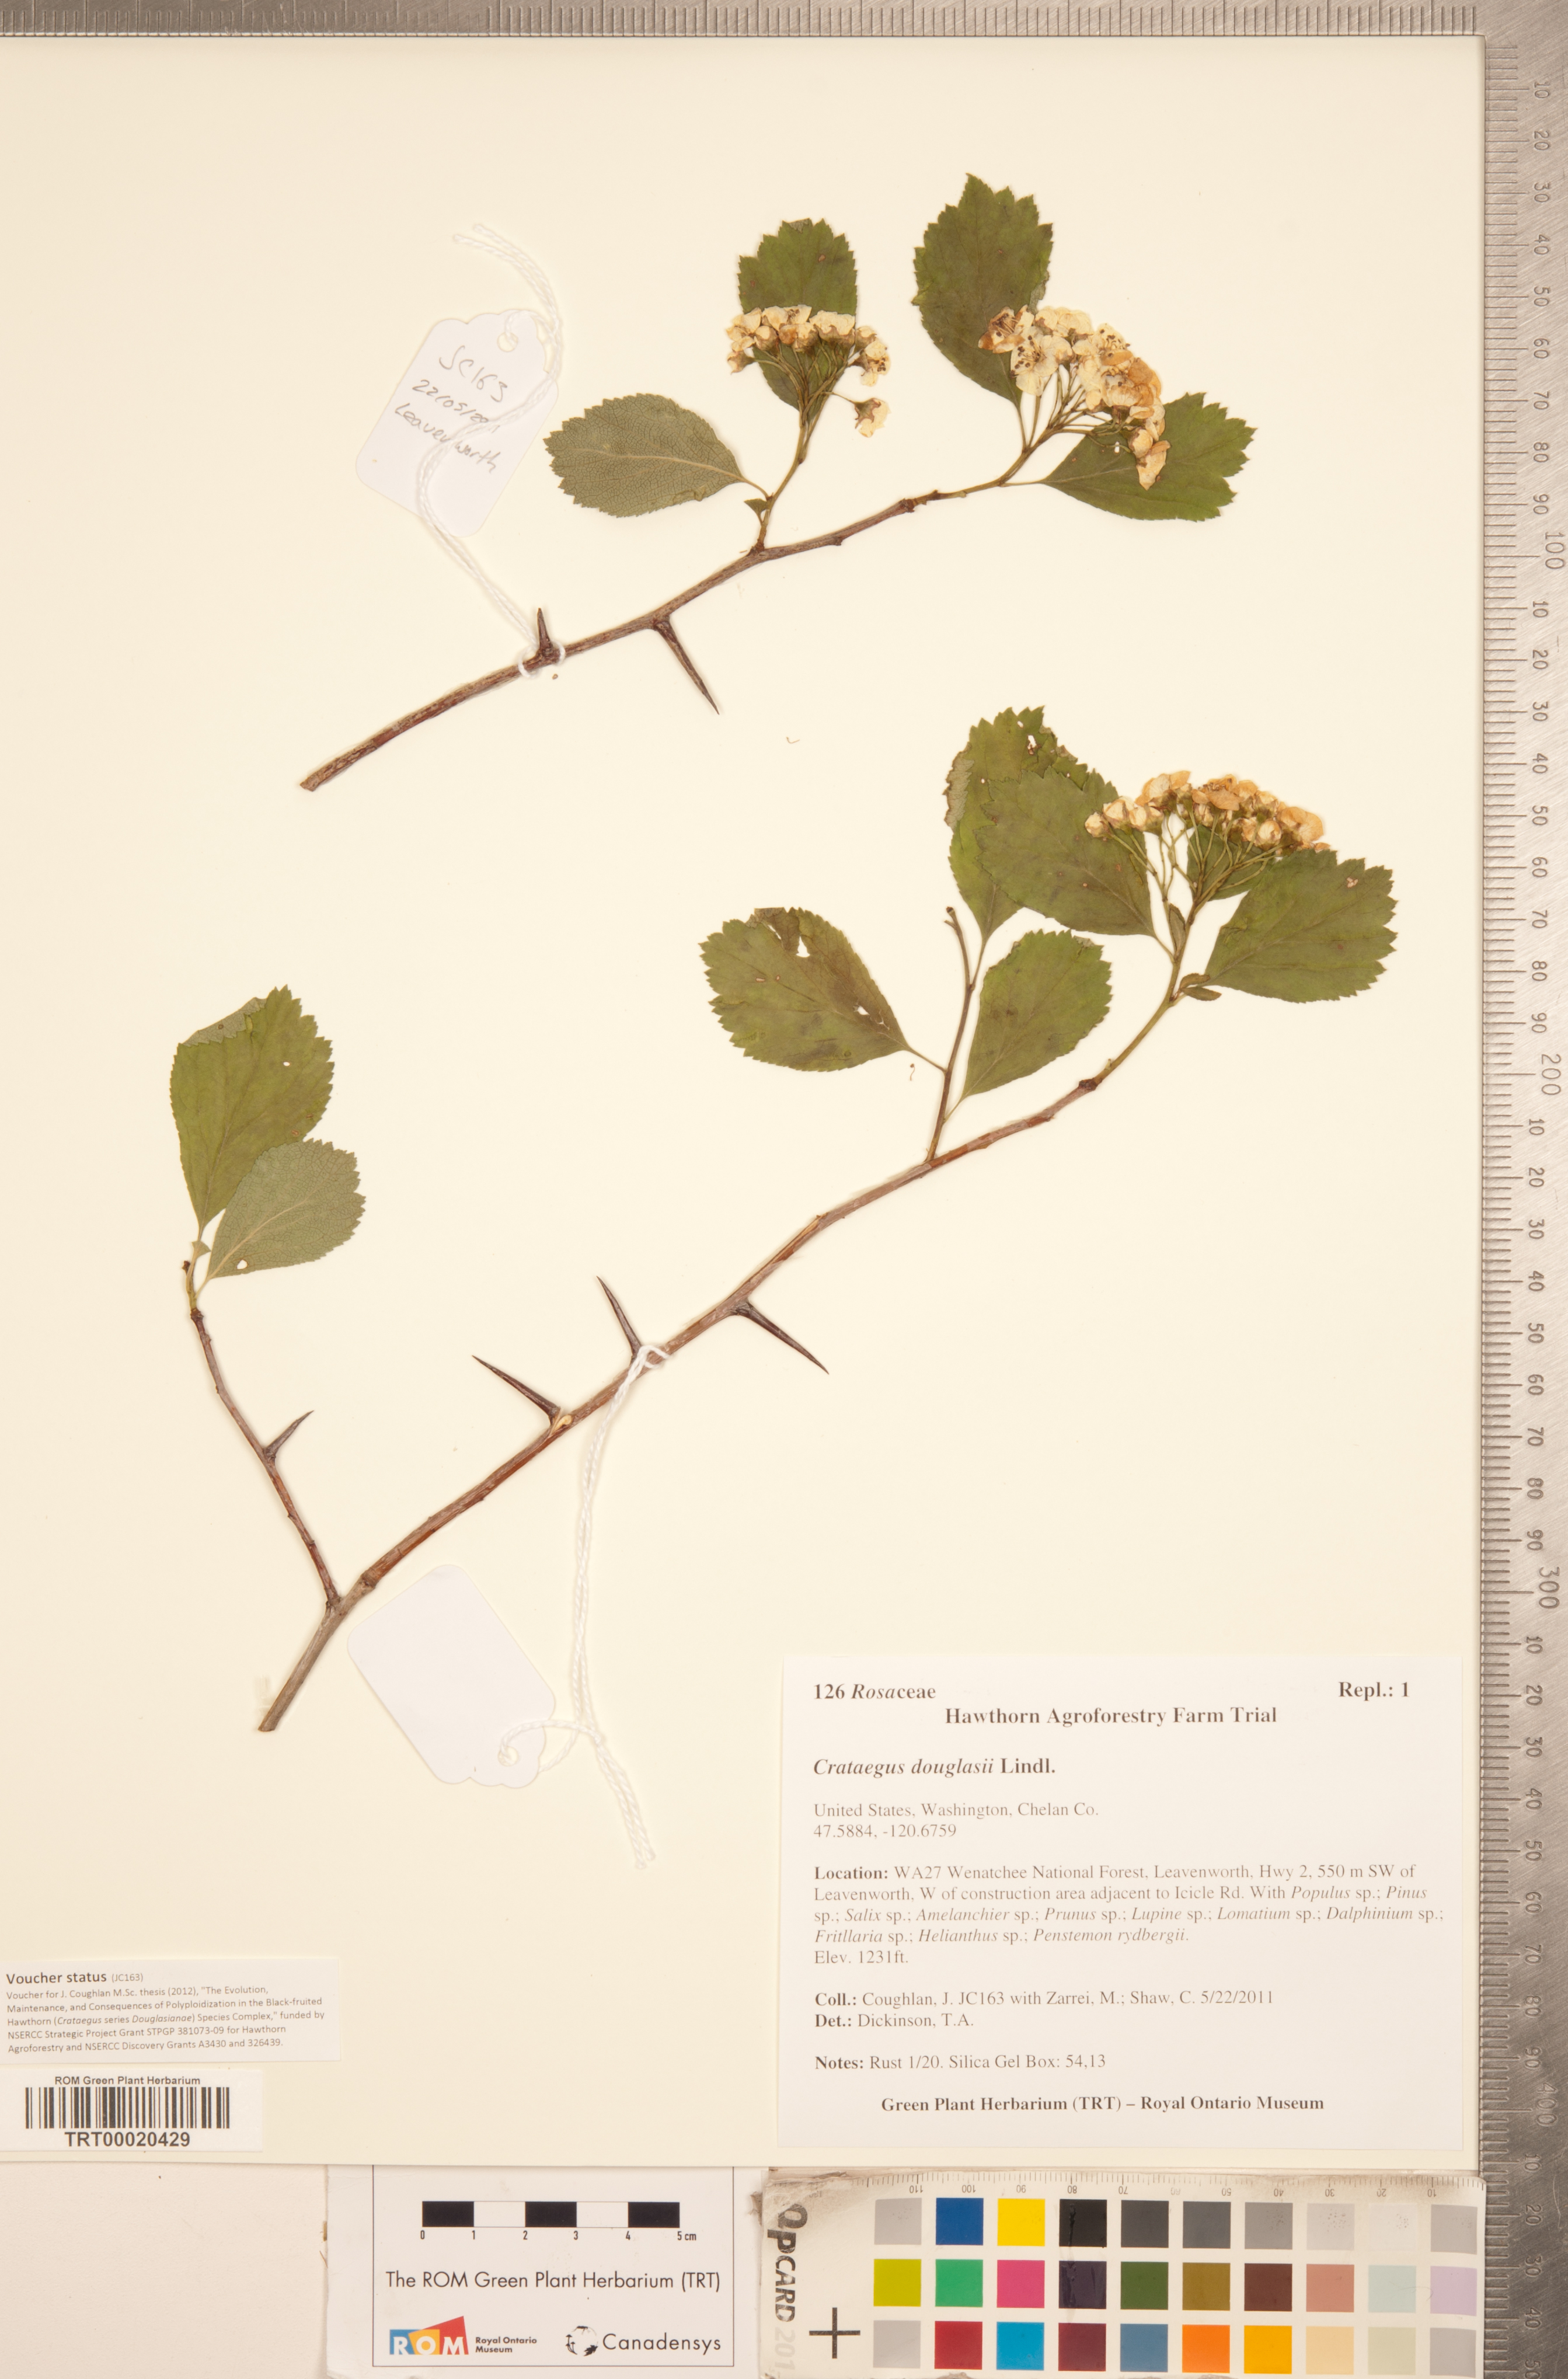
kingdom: Plantae
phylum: Tracheophyta
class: Magnoliopsida
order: Rosales
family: Rosaceae
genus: Crataegus
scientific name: Crataegus douglasii
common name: Black hawthorn
